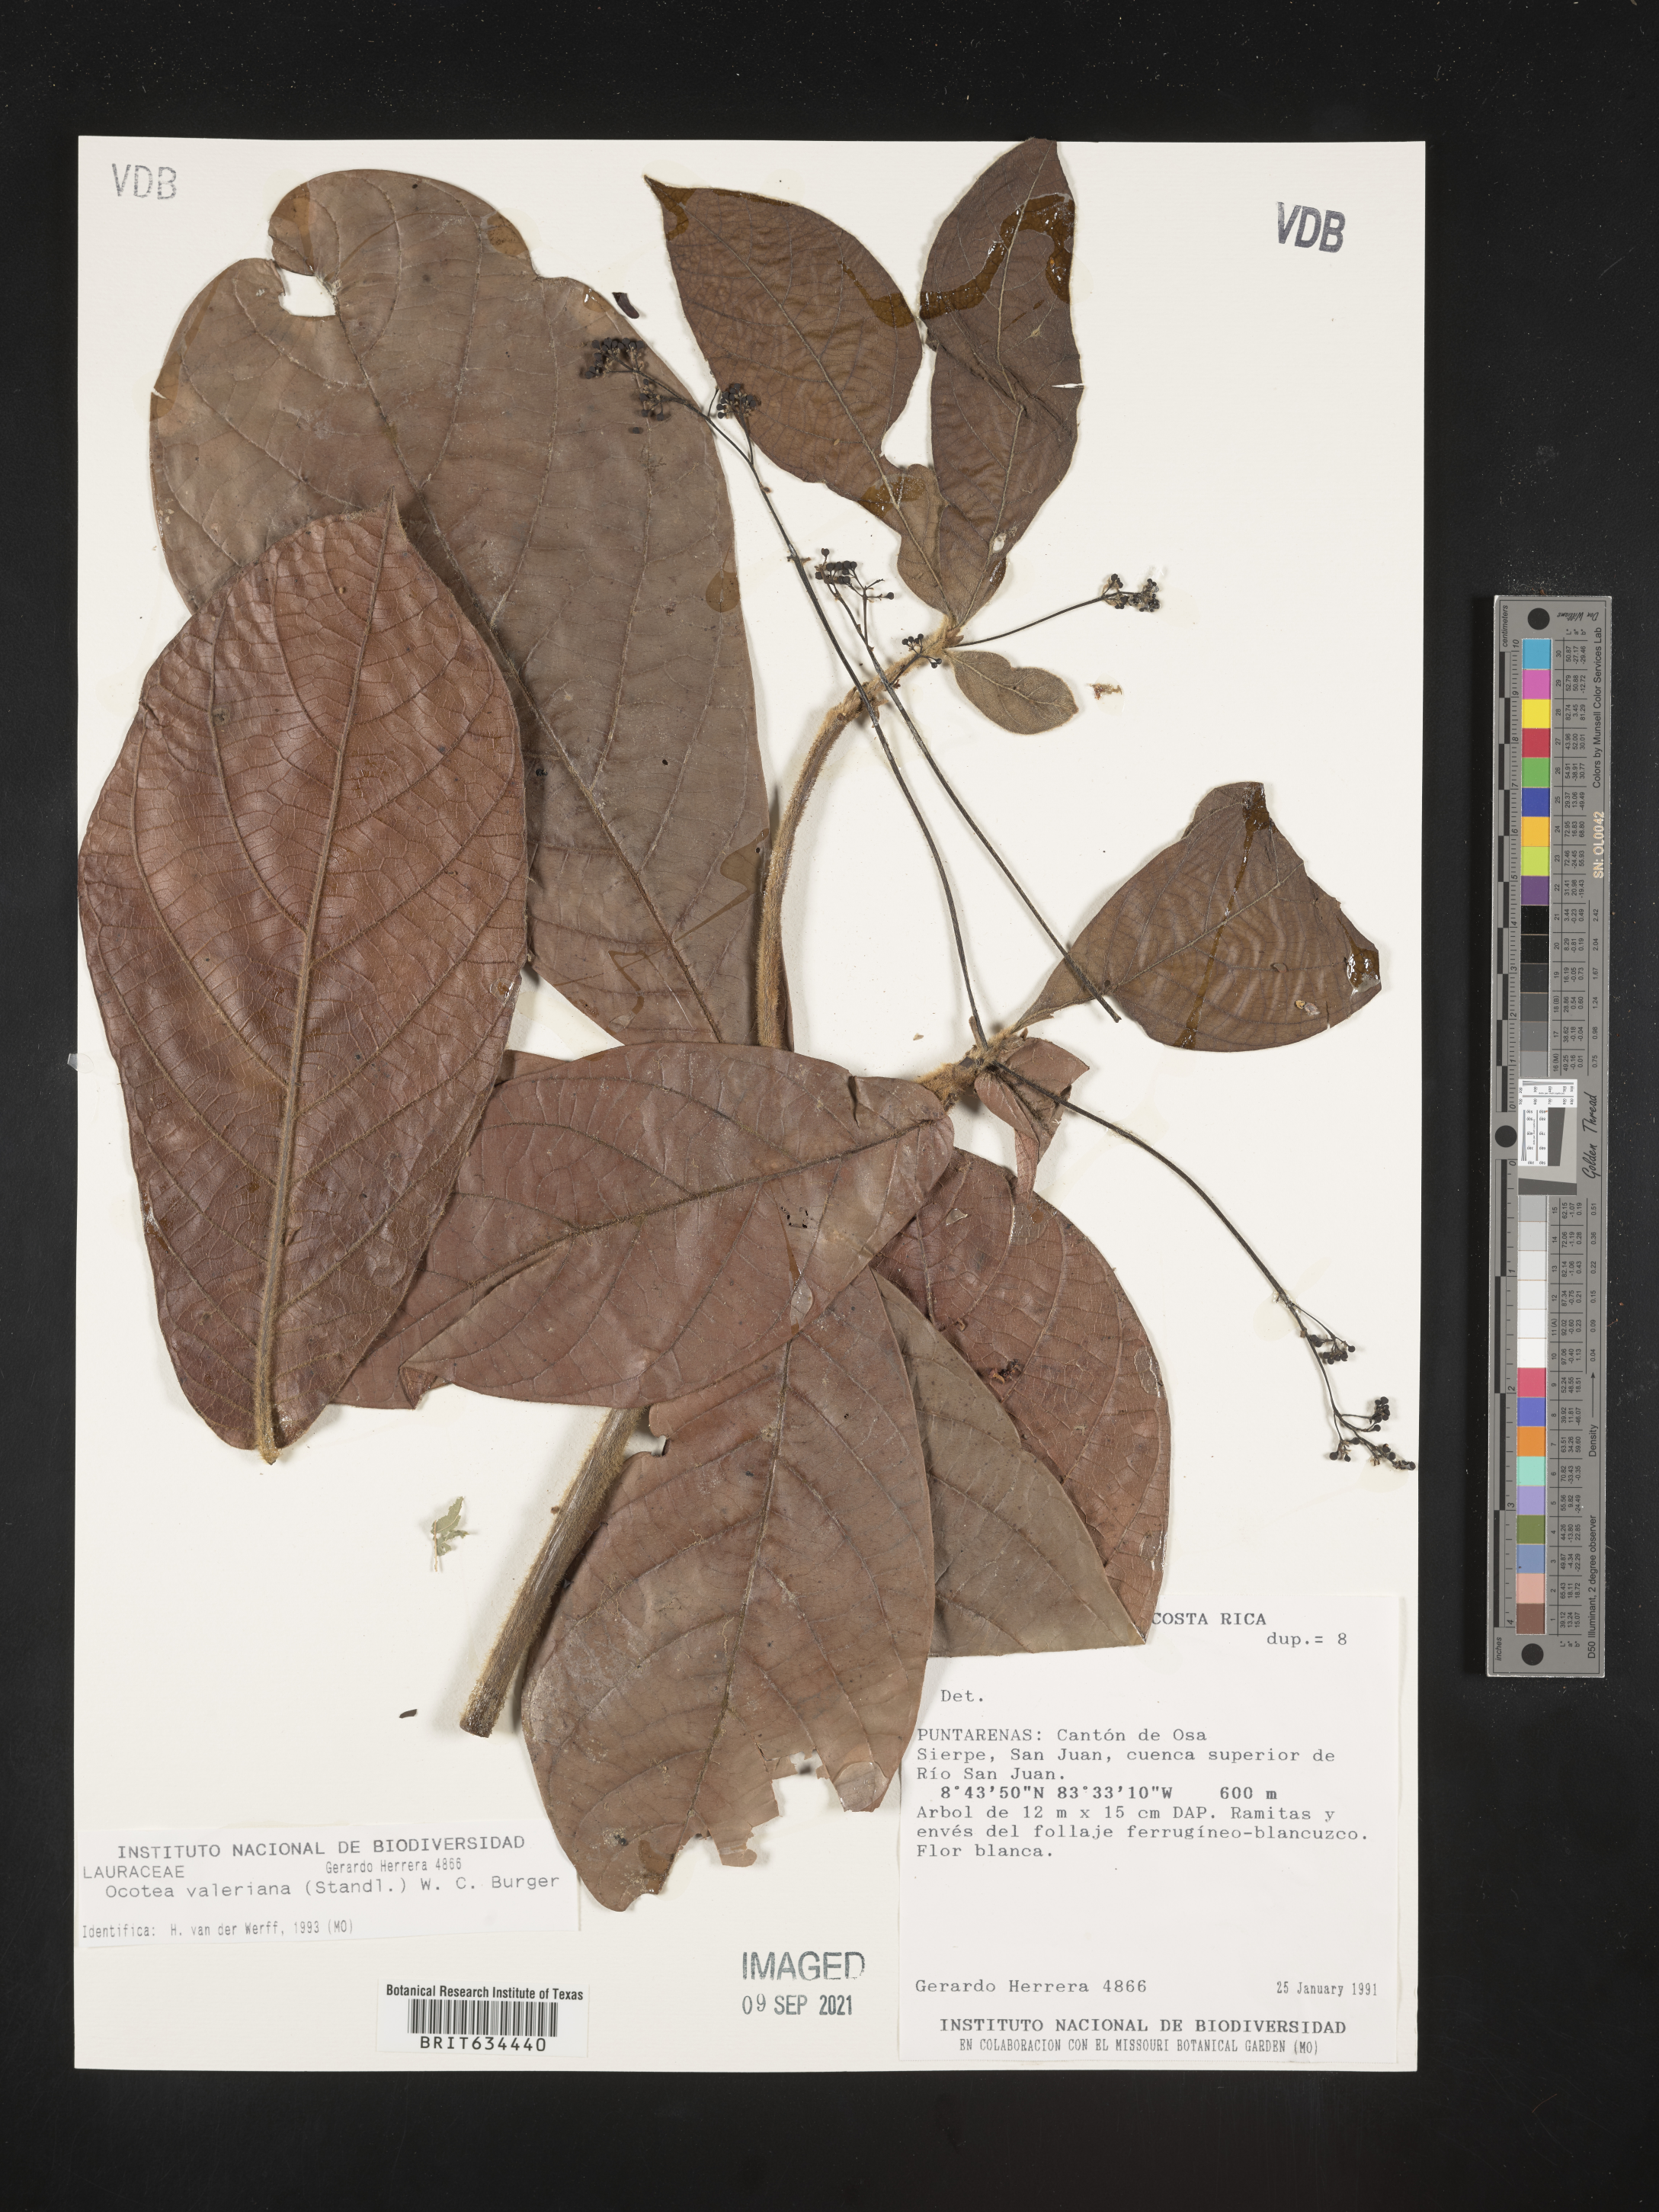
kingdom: Plantae
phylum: Tracheophyta
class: Magnoliopsida
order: Laurales
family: Lauraceae
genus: Ocotea
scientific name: Ocotea
